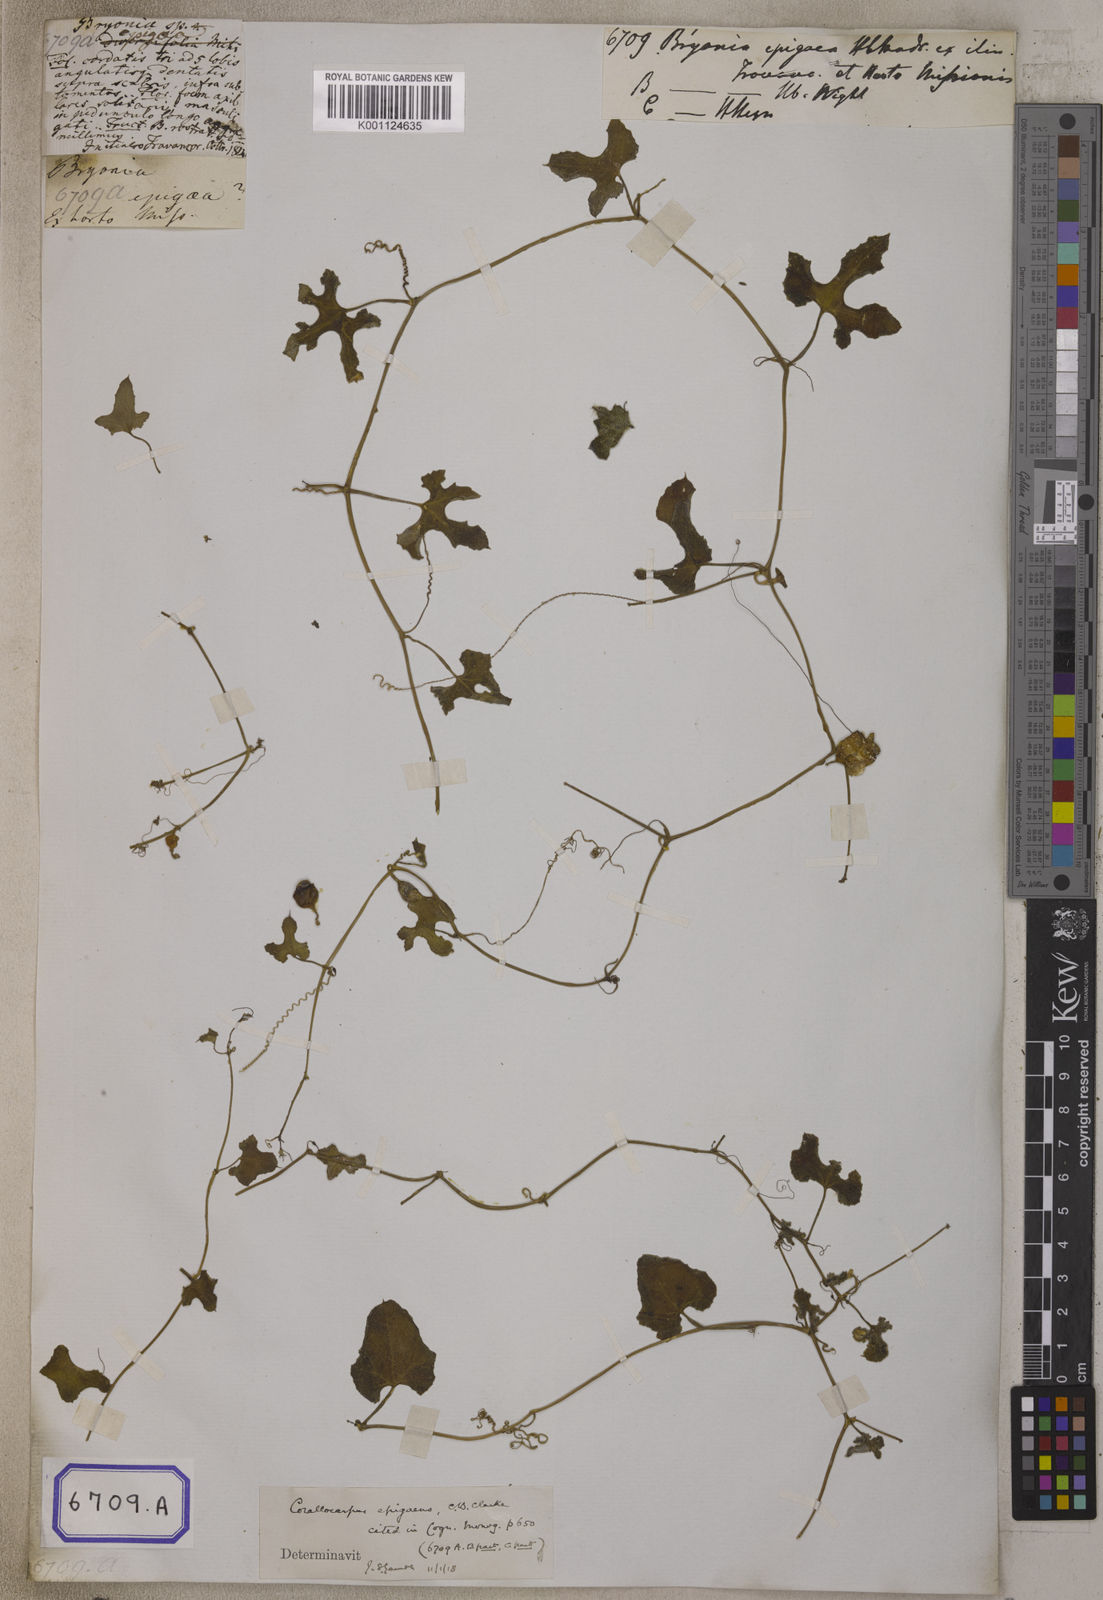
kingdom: Plantae
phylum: Tracheophyta
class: Magnoliopsida
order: Cucurbitales
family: Cucurbitaceae
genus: Corallocarpus
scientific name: Corallocarpus epigaeus
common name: Indian bryonia
